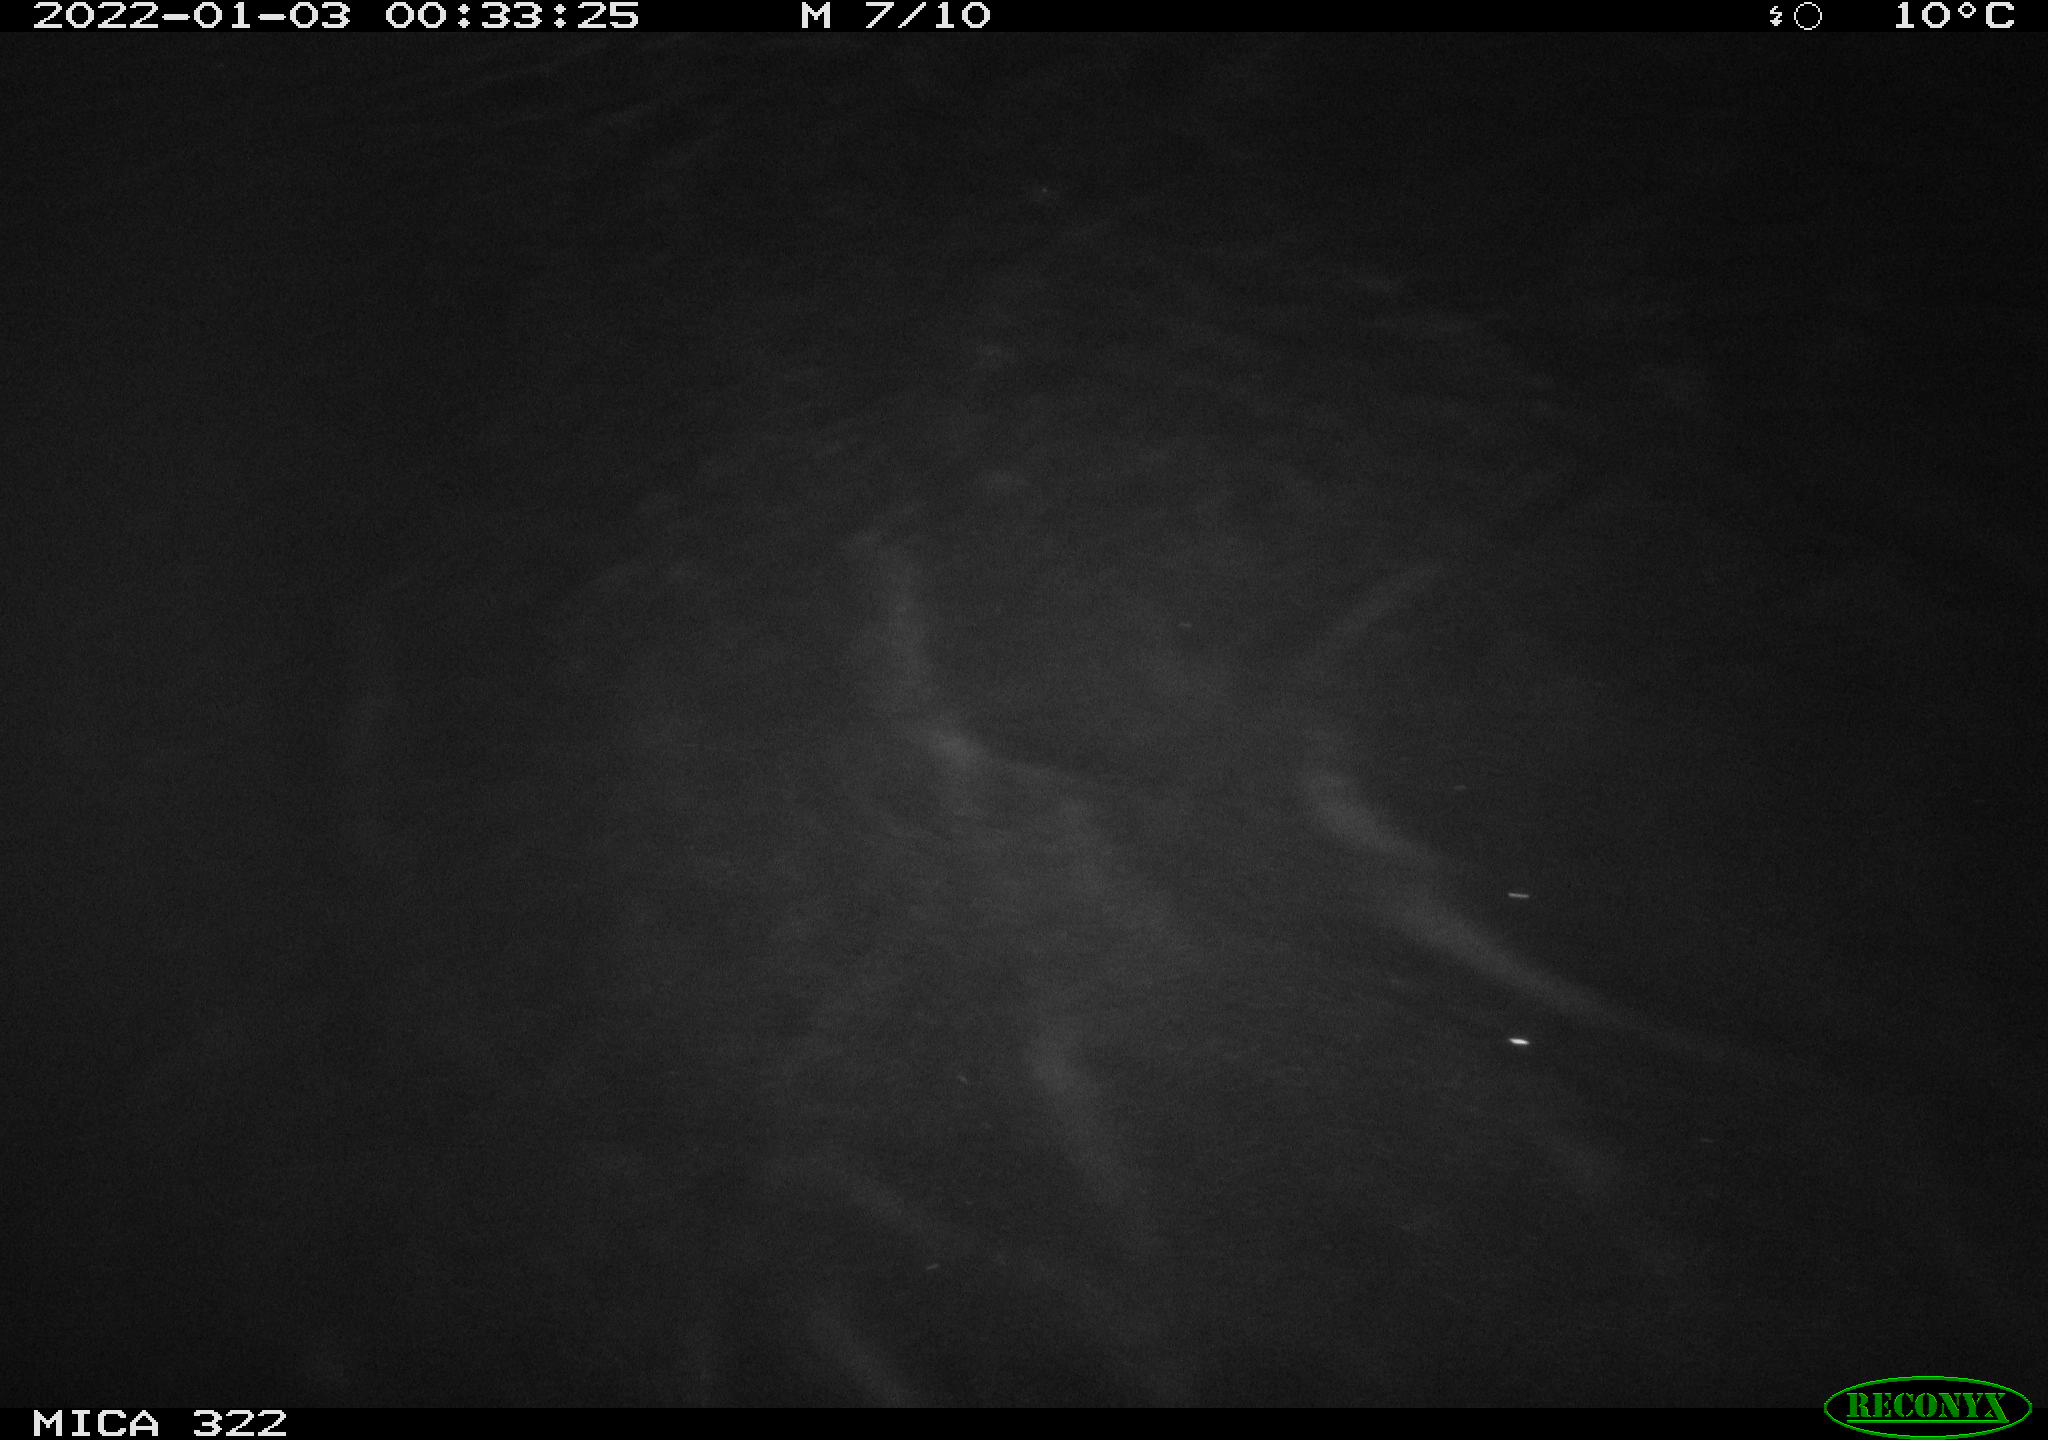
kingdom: Animalia
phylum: Chordata
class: Mammalia
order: Rodentia
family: Muridae
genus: Rattus
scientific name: Rattus norvegicus
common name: Brown rat
